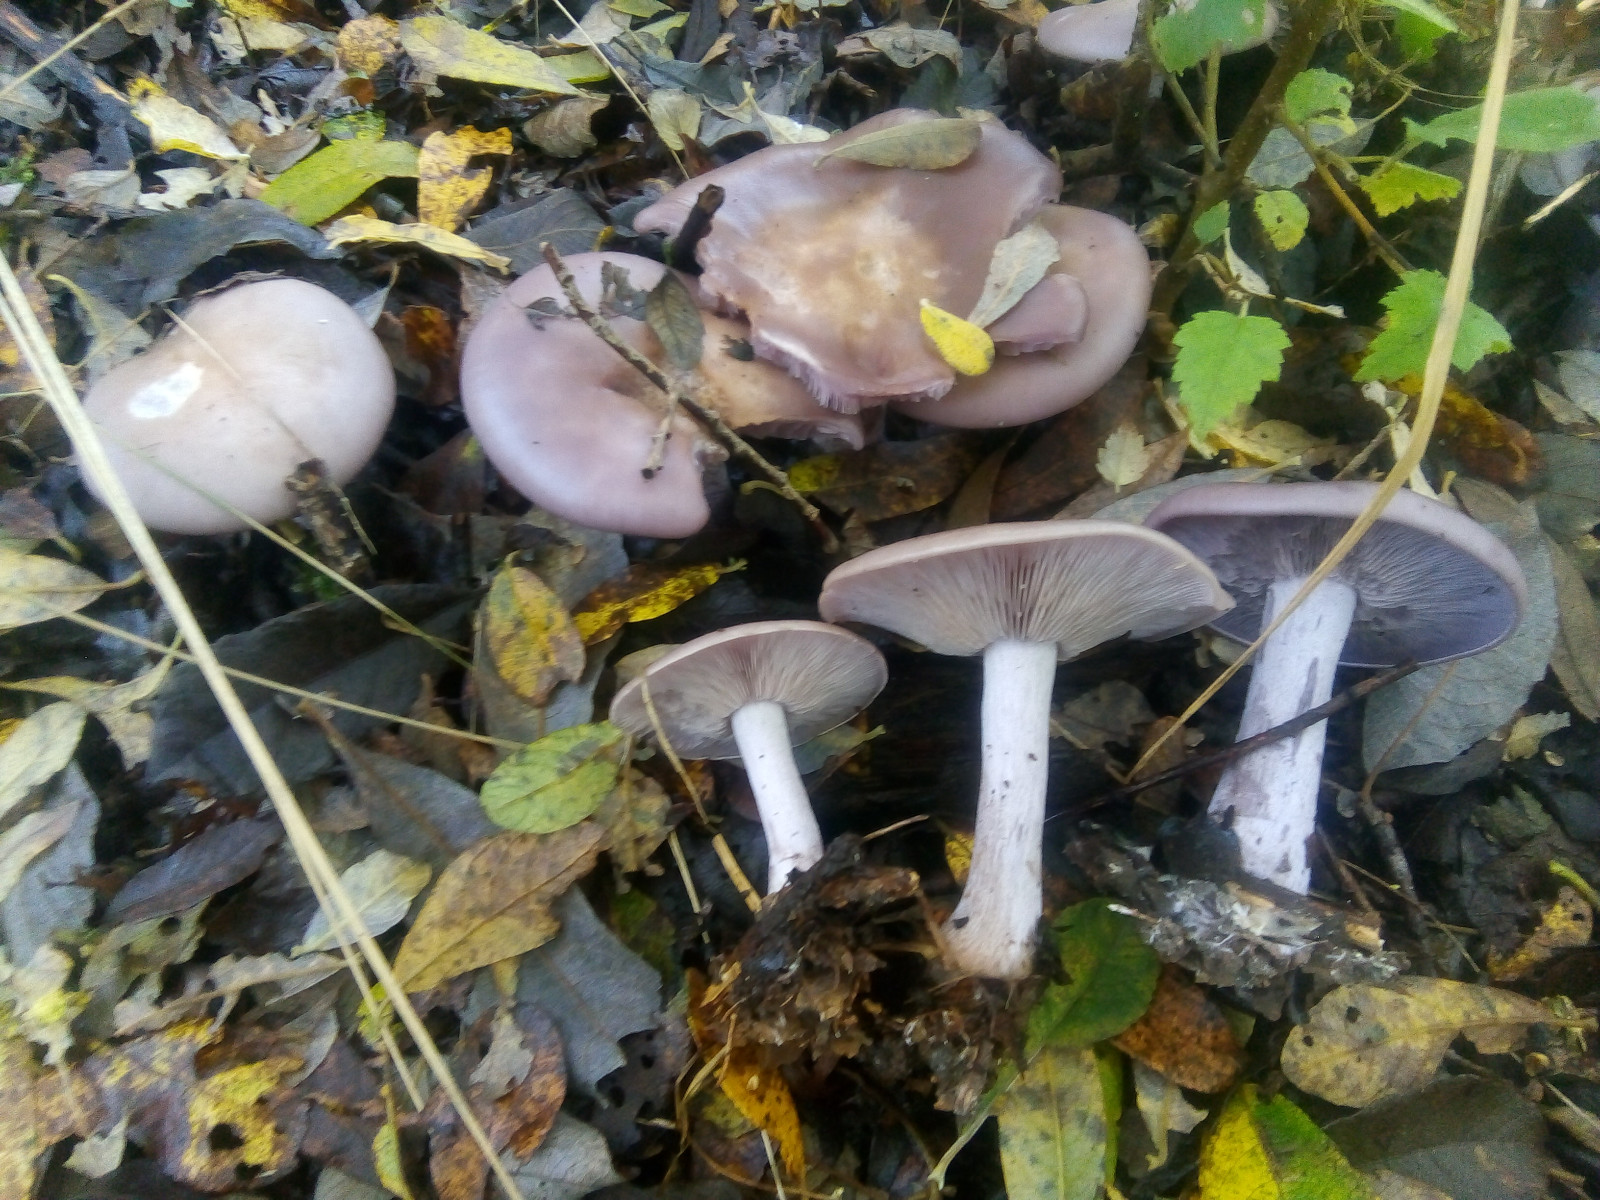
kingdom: Fungi
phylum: Basidiomycota
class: Agaricomycetes
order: Agaricales
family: Tricholomataceae
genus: Lepista
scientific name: Lepista nuda
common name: violet hekseringshat
